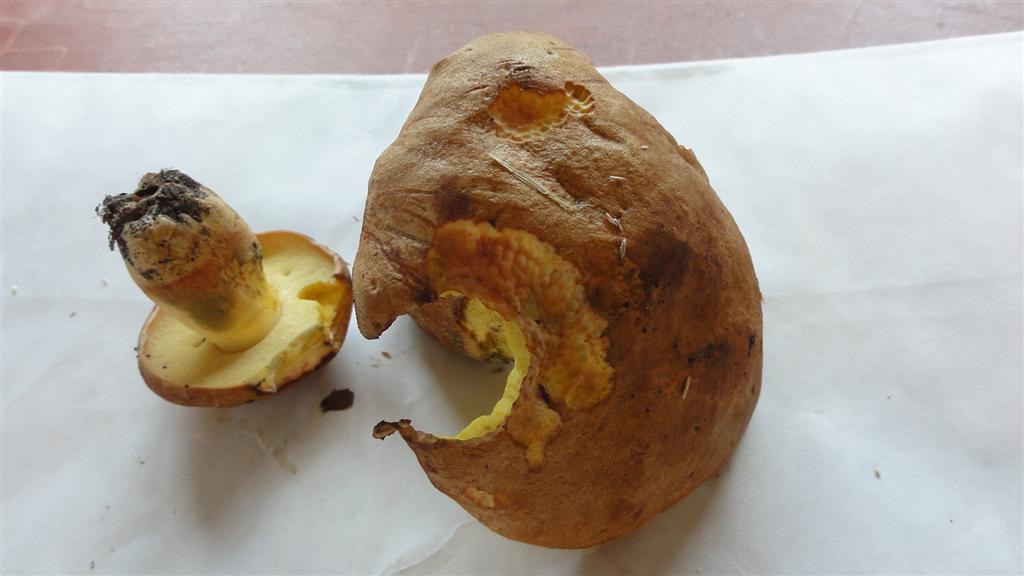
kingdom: Fungi
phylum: Basidiomycota
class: Agaricomycetes
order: Boletales
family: Boletaceae
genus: Butyriboletus
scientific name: Butyriboletus appendiculatus
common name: tenstokket rørhat
